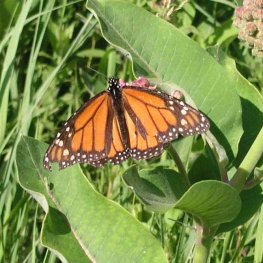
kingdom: Animalia
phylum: Arthropoda
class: Insecta
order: Lepidoptera
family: Nymphalidae
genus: Danaus
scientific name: Danaus plexippus
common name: Monarch
